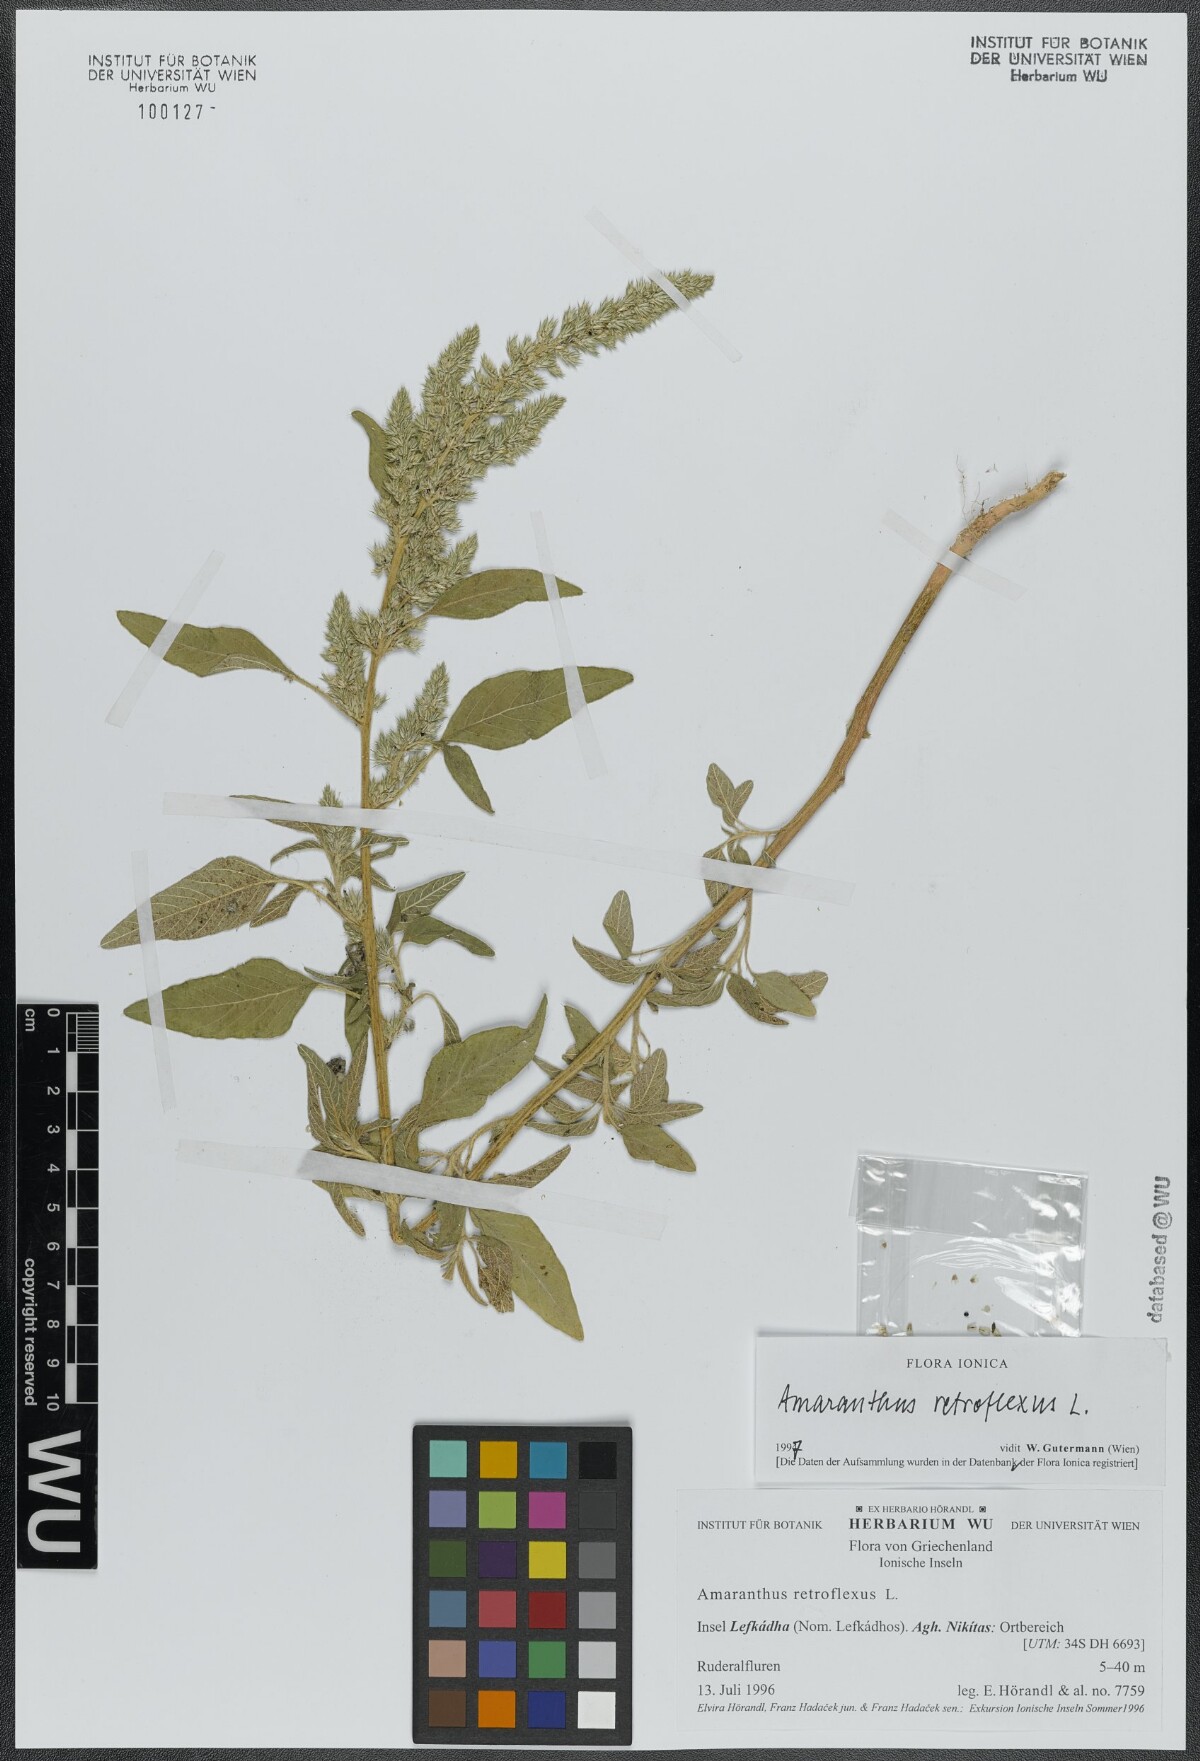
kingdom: Plantae
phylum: Tracheophyta
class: Magnoliopsida
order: Caryophyllales
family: Amaranthaceae
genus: Amaranthus
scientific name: Amaranthus retroflexus
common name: Redroot amaranth
